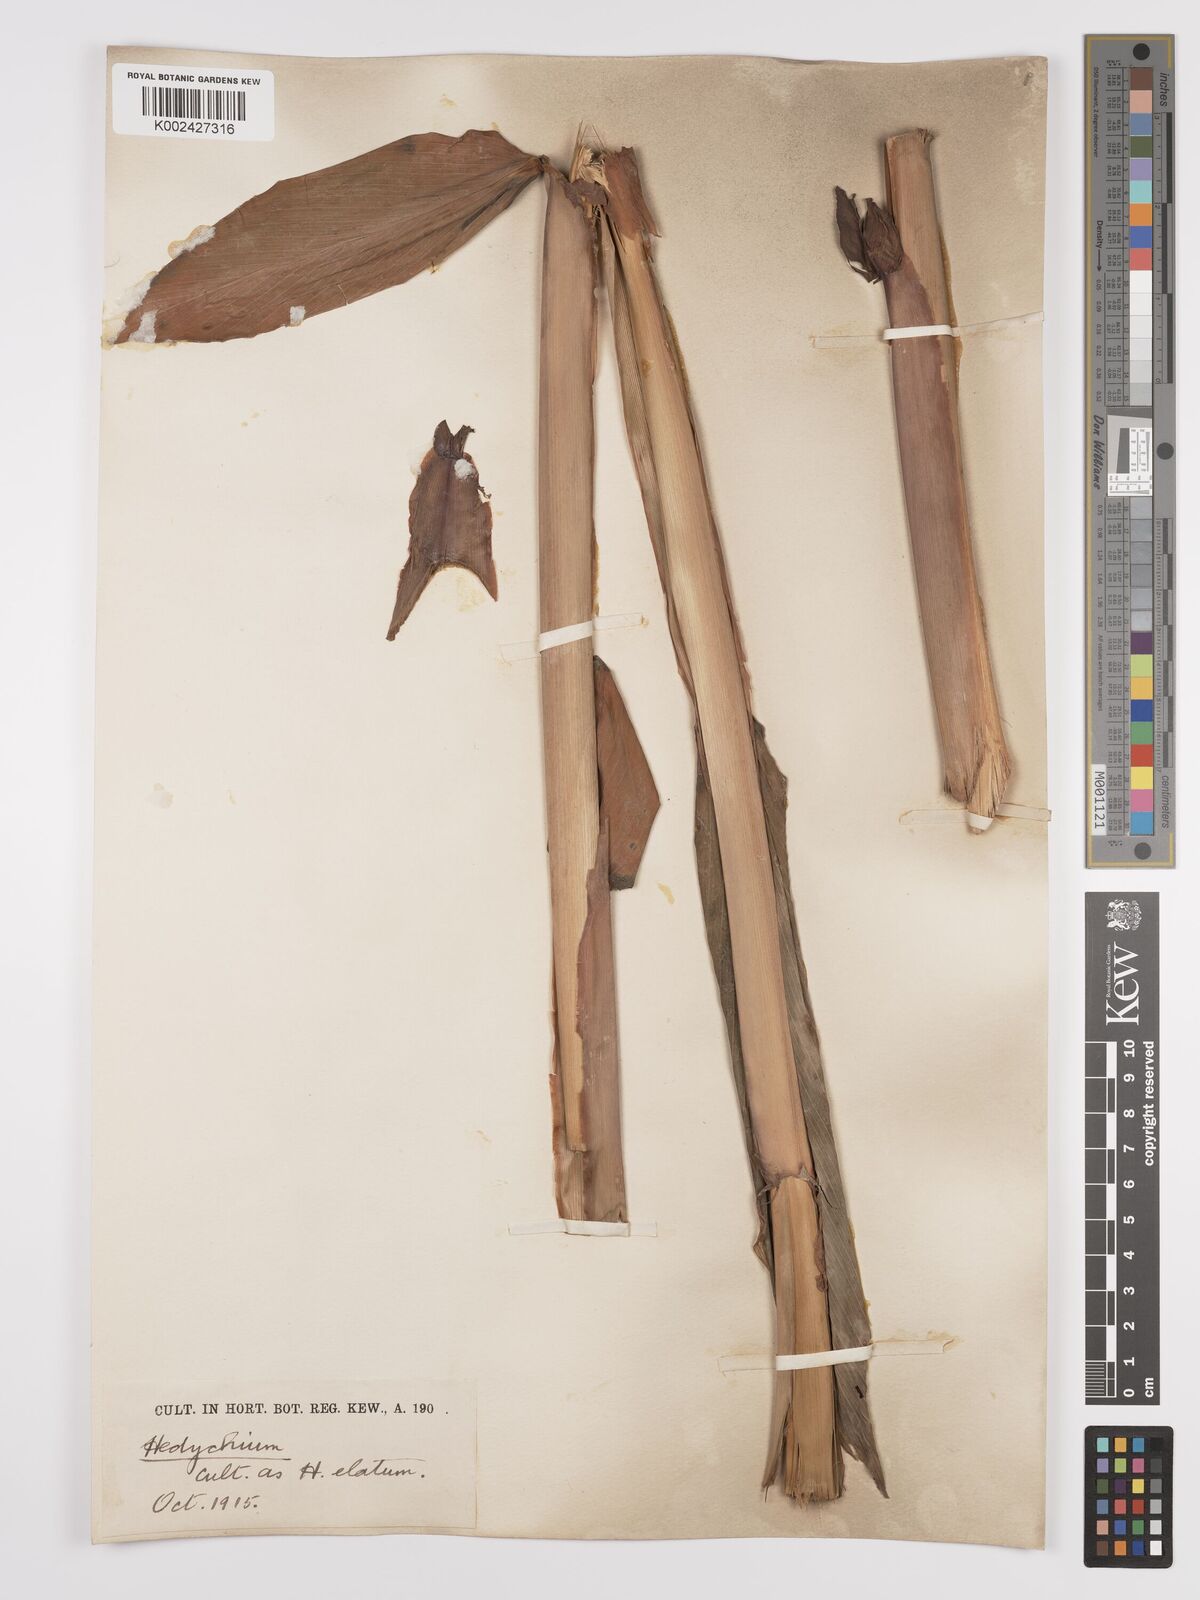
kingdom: Plantae
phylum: Tracheophyta
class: Liliopsida
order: Zingiberales
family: Zingiberaceae
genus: Hedychium
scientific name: Hedychium elatum
